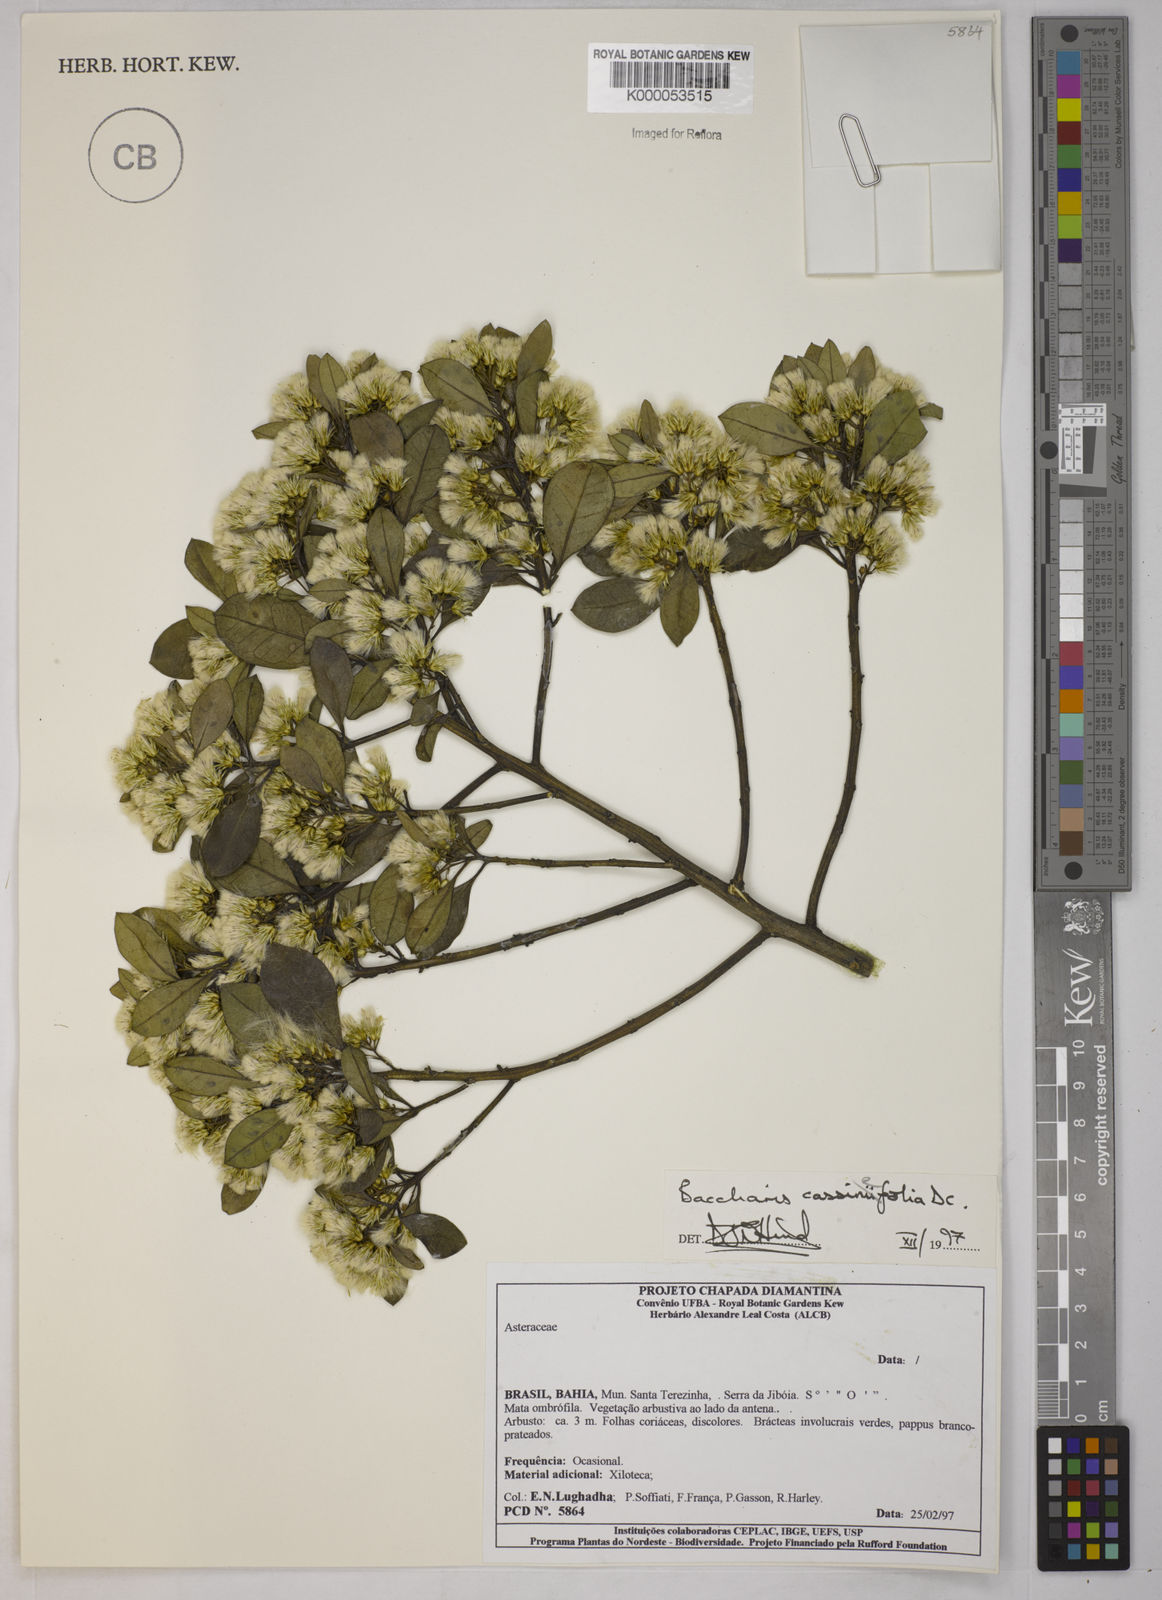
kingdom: Plantae
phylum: Tracheophyta
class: Magnoliopsida
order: Asterales
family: Asteraceae
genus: Baccharis
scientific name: Baccharis singularis
